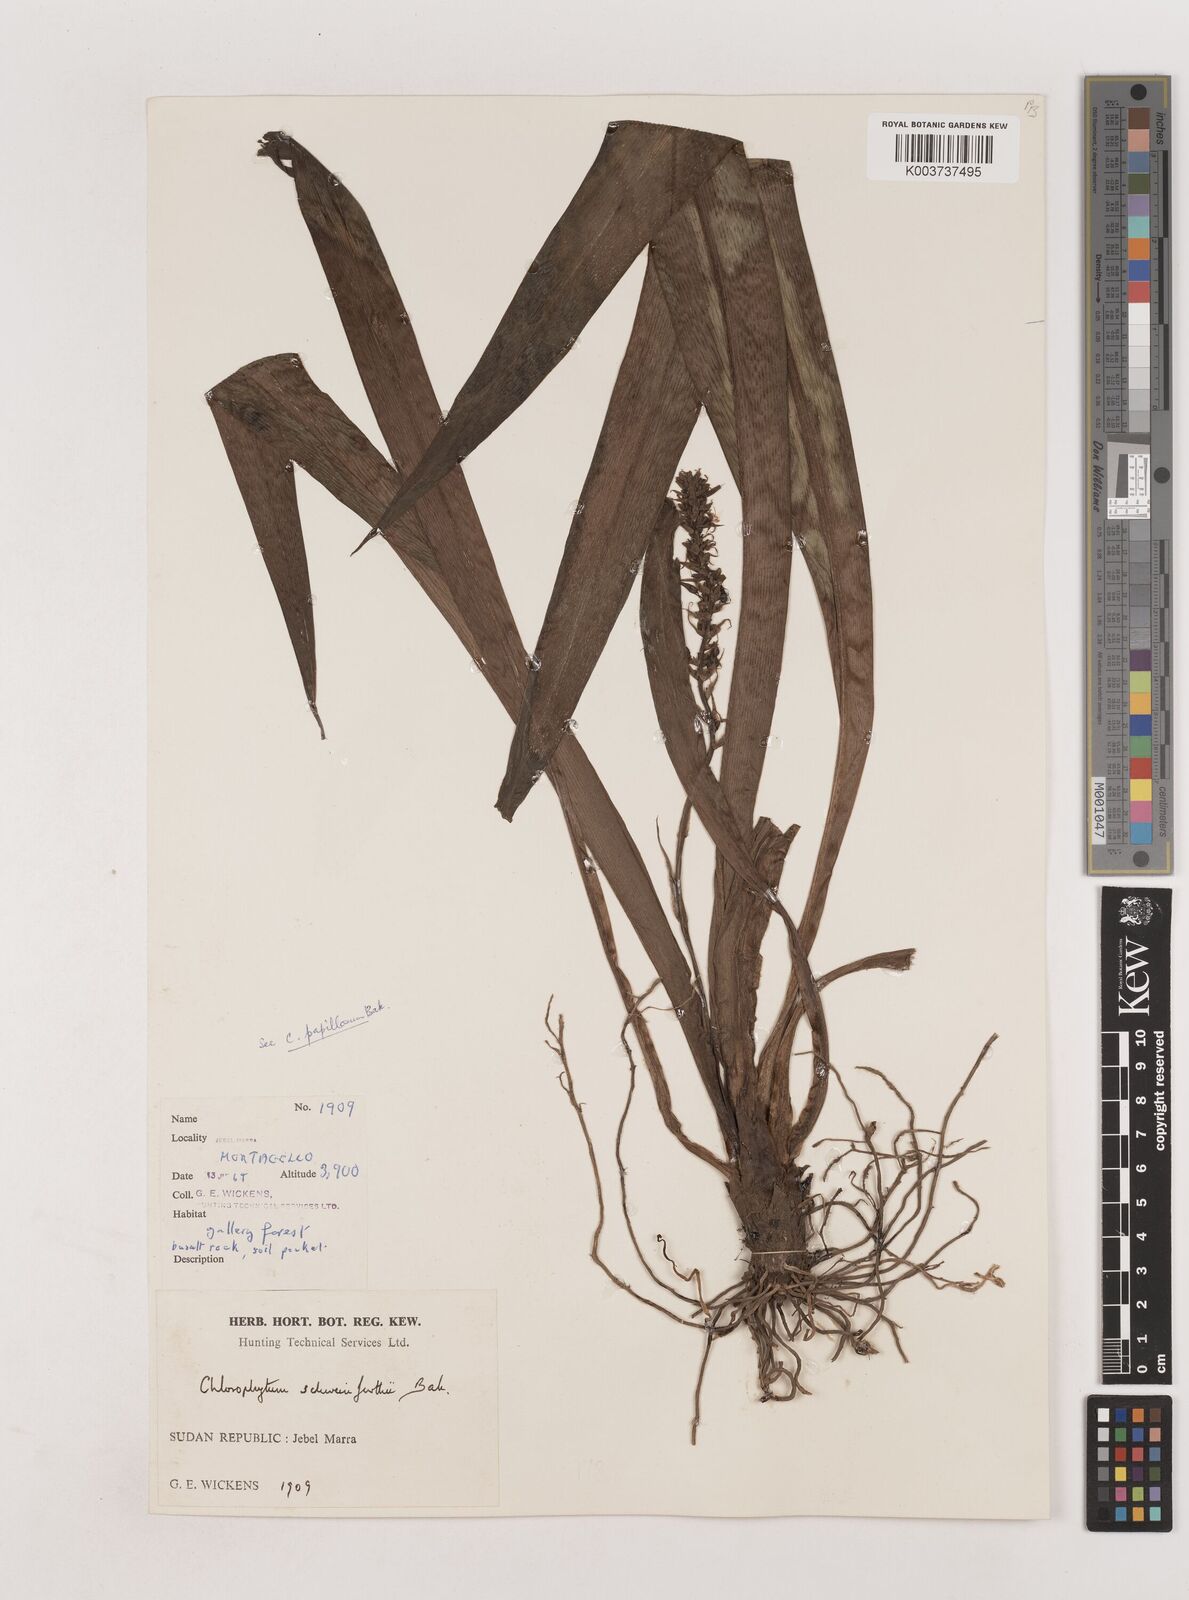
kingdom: Plantae
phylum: Tracheophyta
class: Liliopsida
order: Asparagales
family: Asparagaceae
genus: Chlorophytum
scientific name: Chlorophytum macrophyllum
